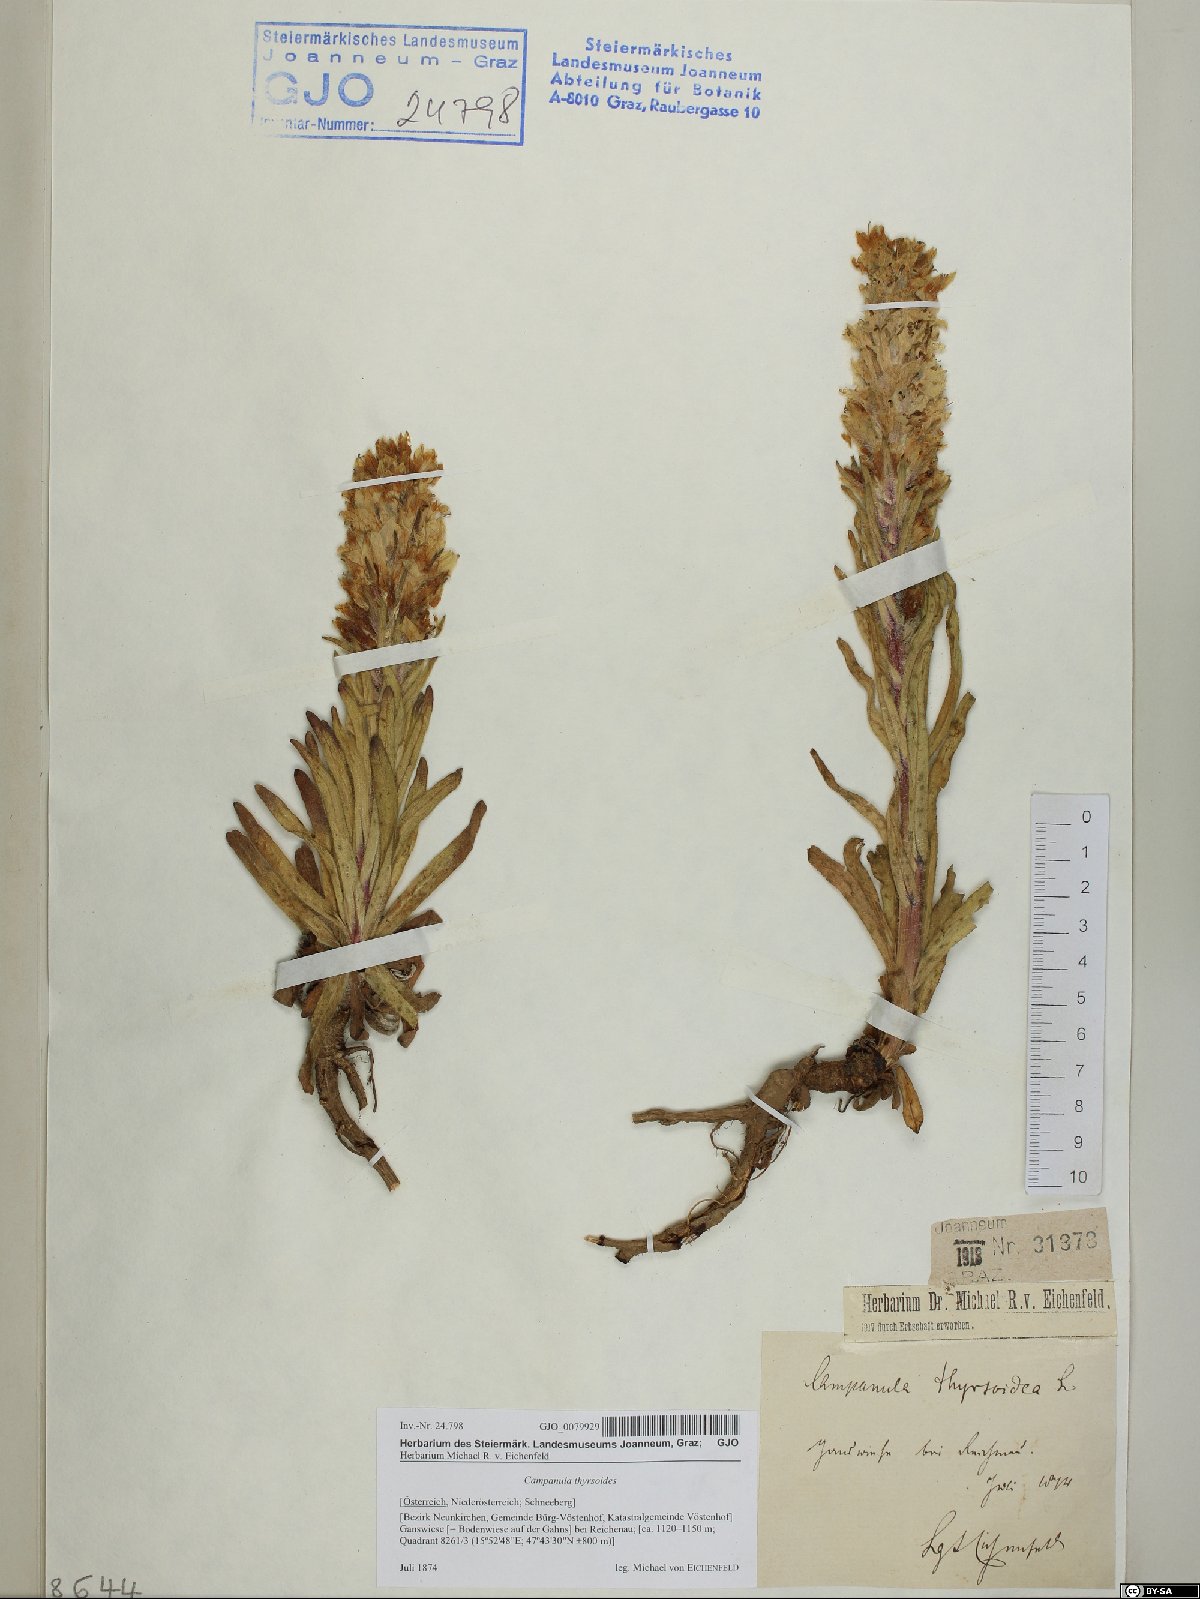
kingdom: Plantae
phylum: Tracheophyta
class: Magnoliopsida
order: Asterales
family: Campanulaceae
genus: Campanula
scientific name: Campanula thyrsoides
